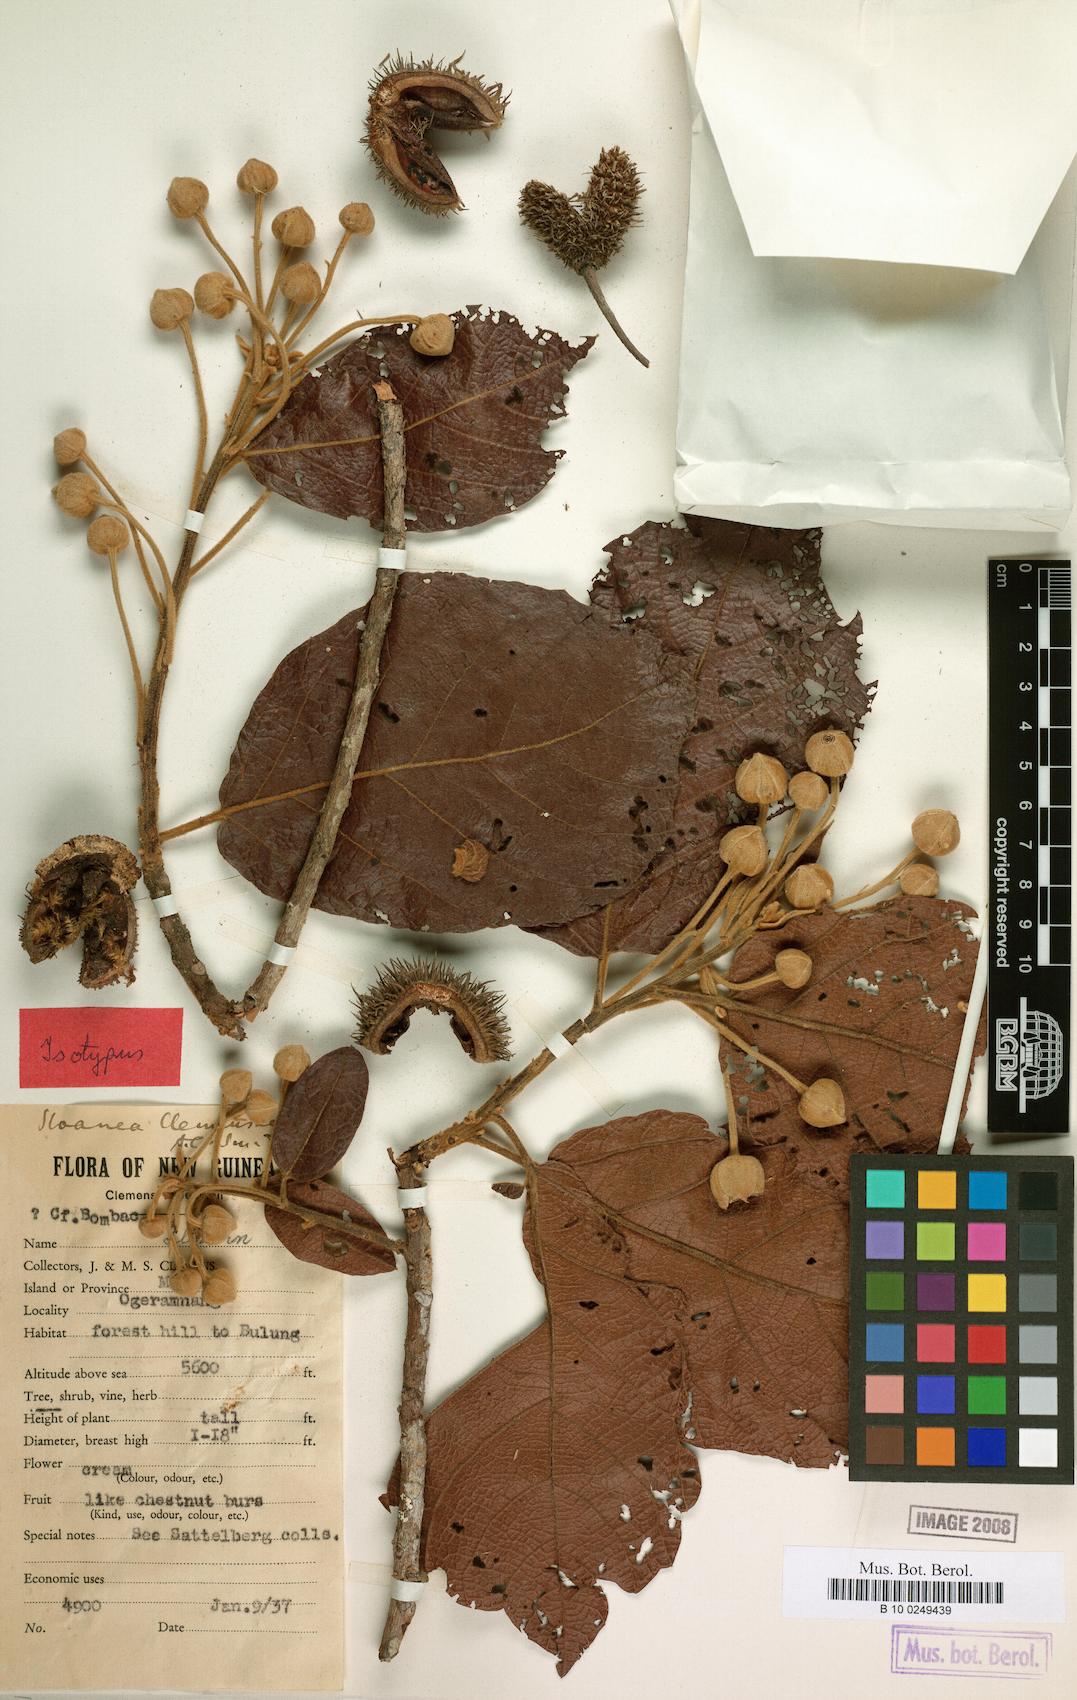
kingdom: Plantae
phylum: Tracheophyta
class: Magnoliopsida
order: Oxalidales
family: Elaeocarpaceae
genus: Sloanea
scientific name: Sloanea pulchra
